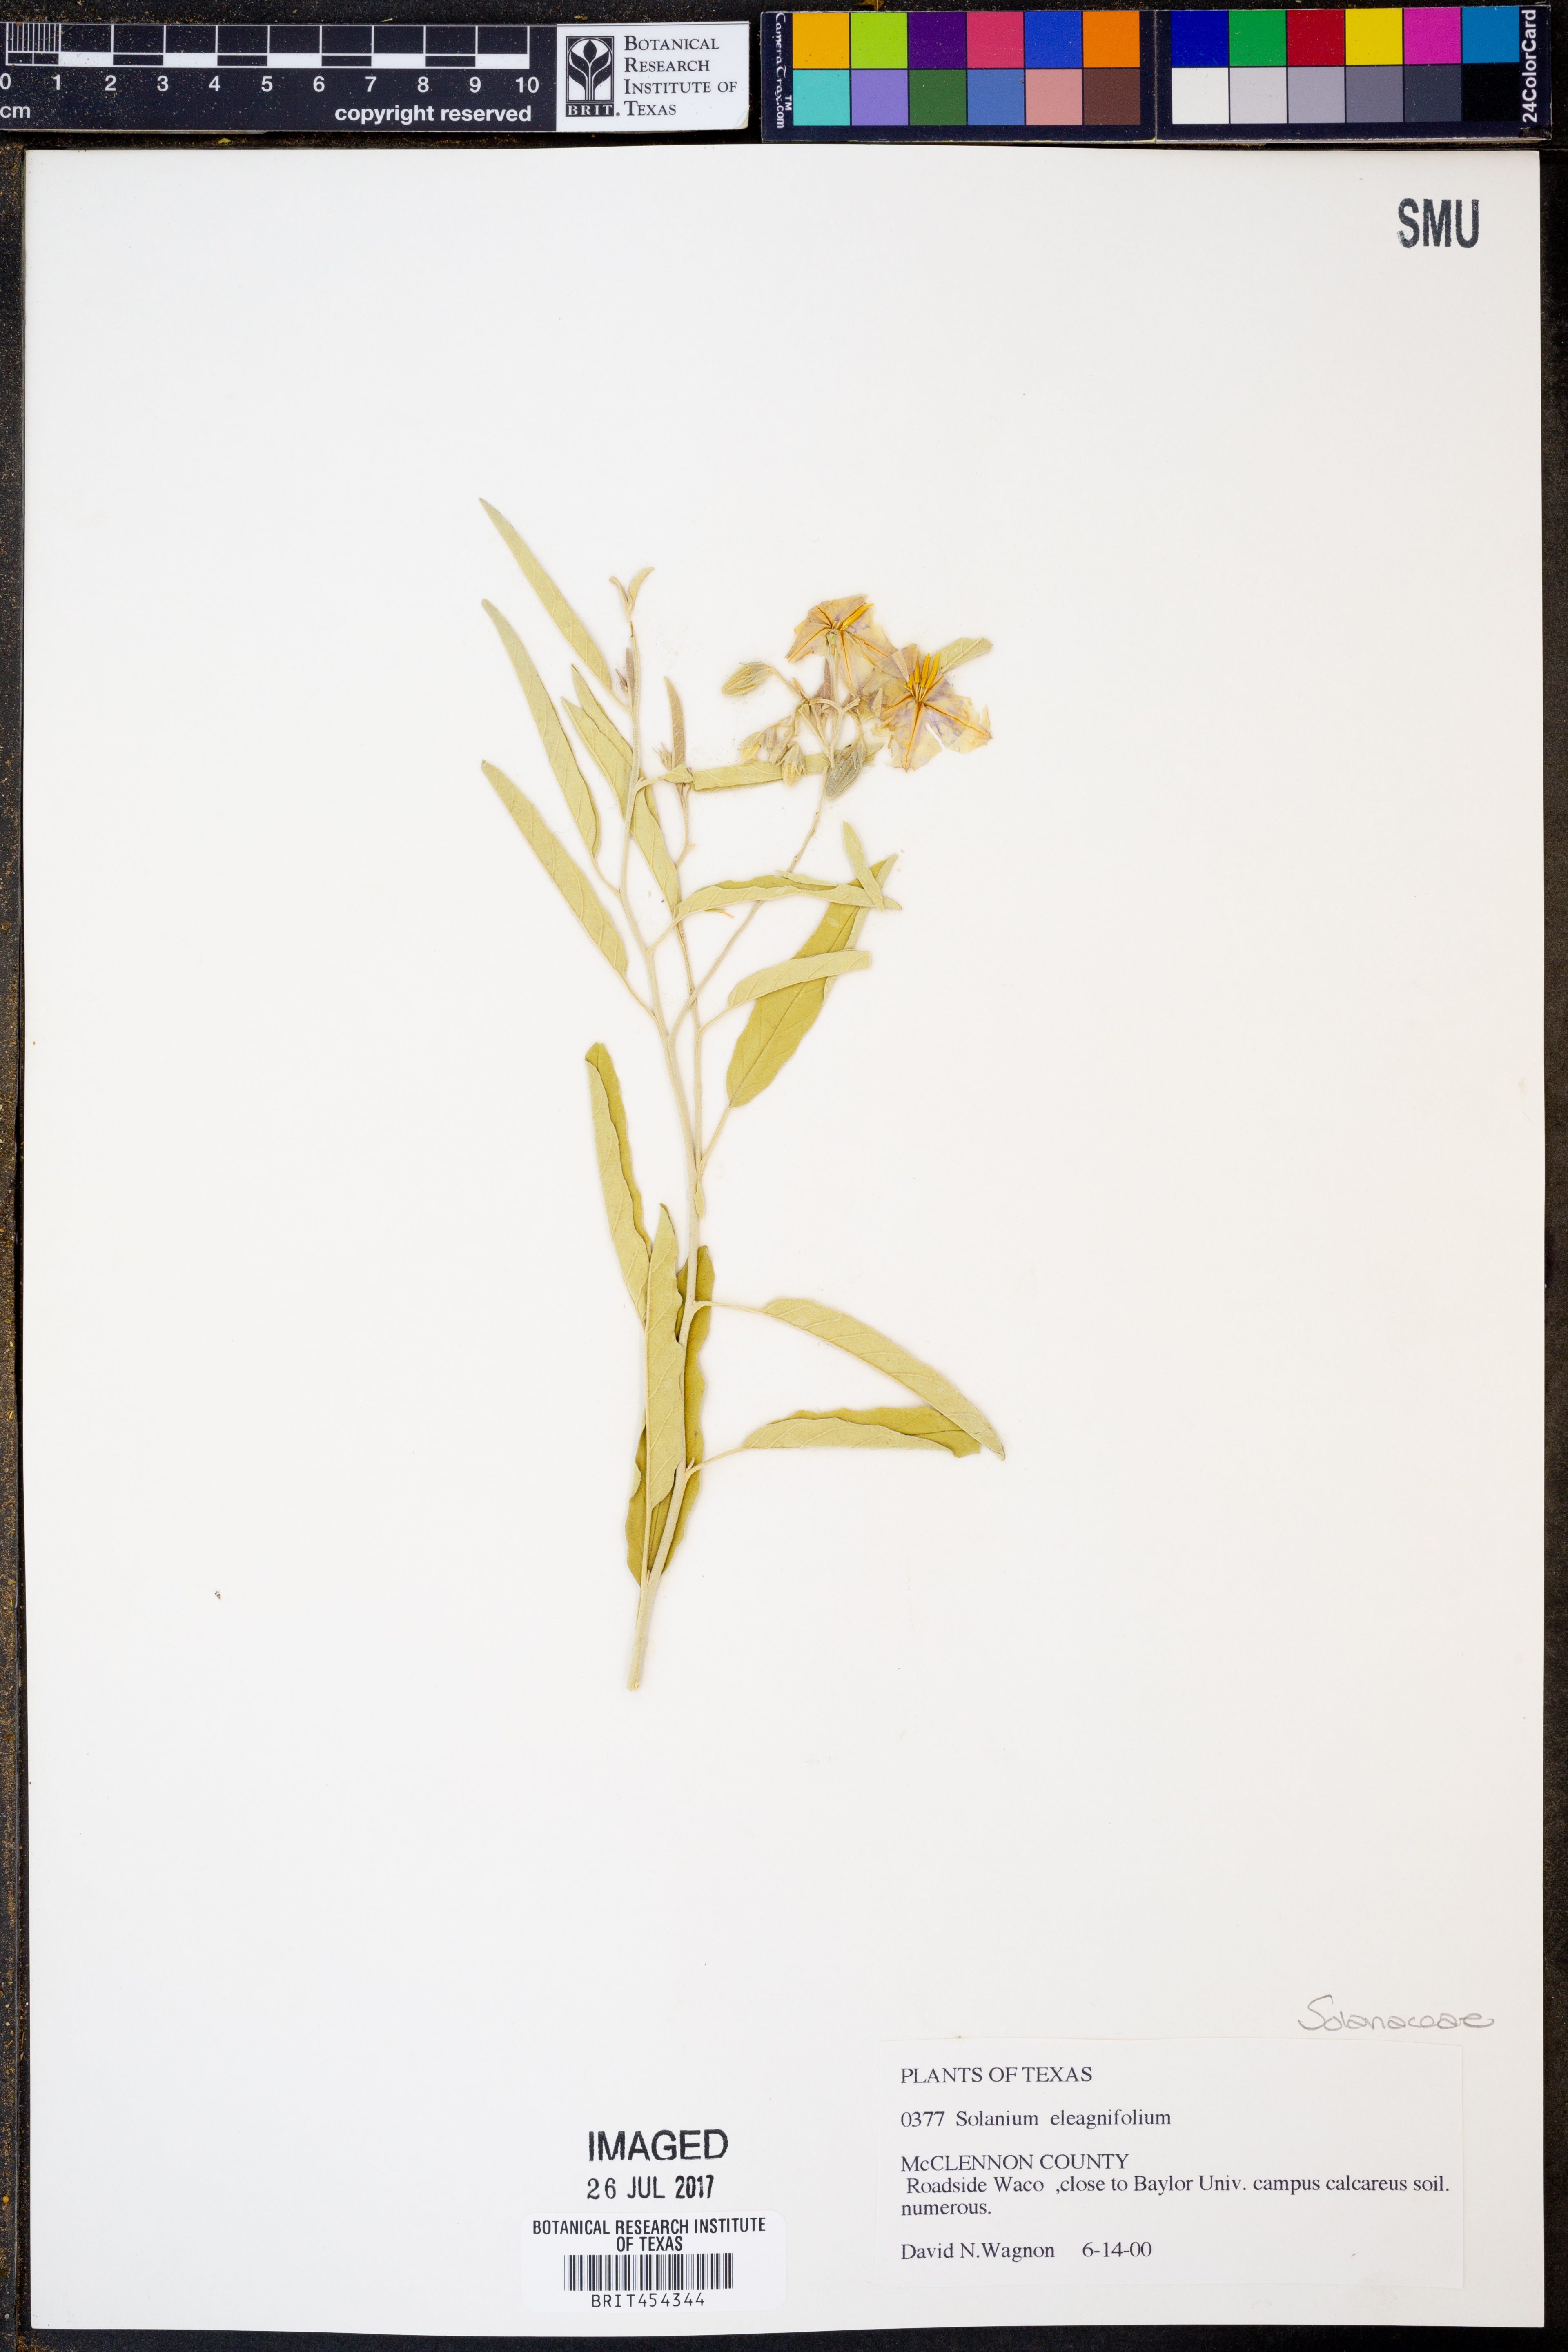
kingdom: Plantae
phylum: Tracheophyta
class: Magnoliopsida
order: Solanales
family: Solanaceae
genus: Solanum
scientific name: Solanum elaeagnifolium
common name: Silverleaf nightshade
